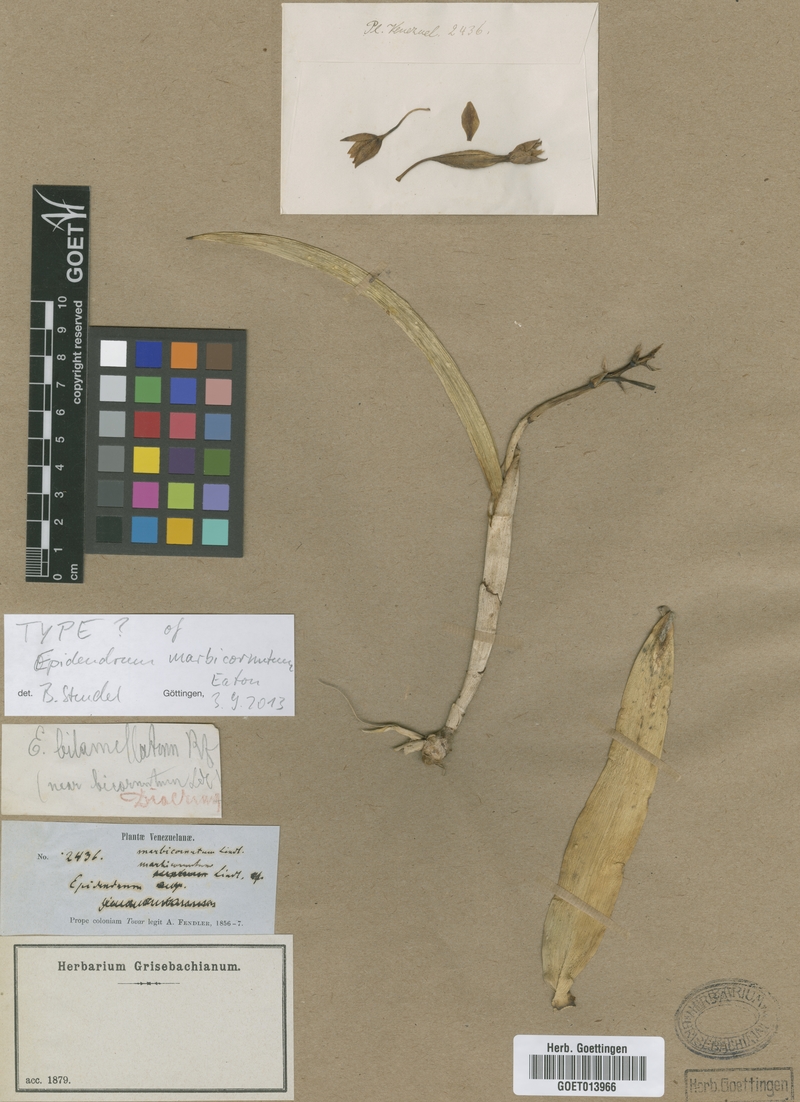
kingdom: Plantae
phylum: Tracheophyta
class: Liliopsida
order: Asparagales
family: Orchidaceae
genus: Epidendrum
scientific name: Epidendrum marbicornutum
